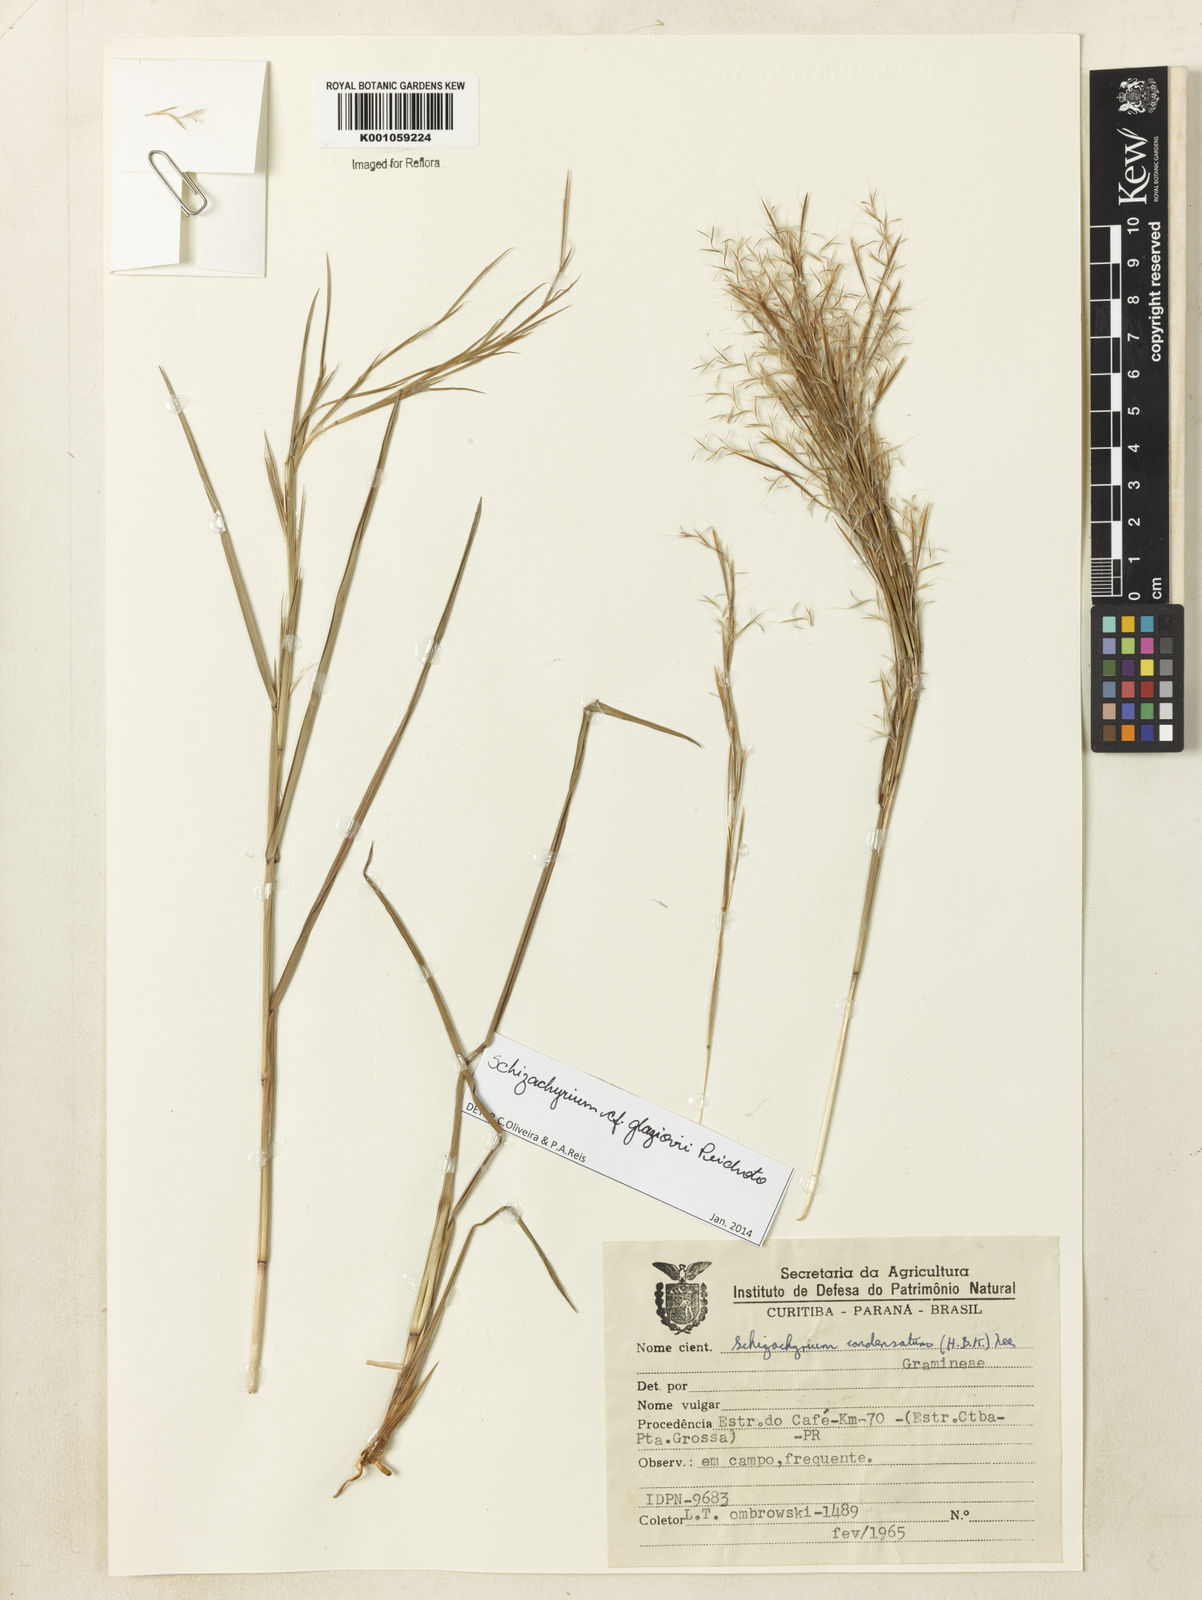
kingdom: Plantae
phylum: Tracheophyta
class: Liliopsida
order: Poales
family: Poaceae
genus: Schizachyrium
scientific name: Schizachyrium glaziovii
